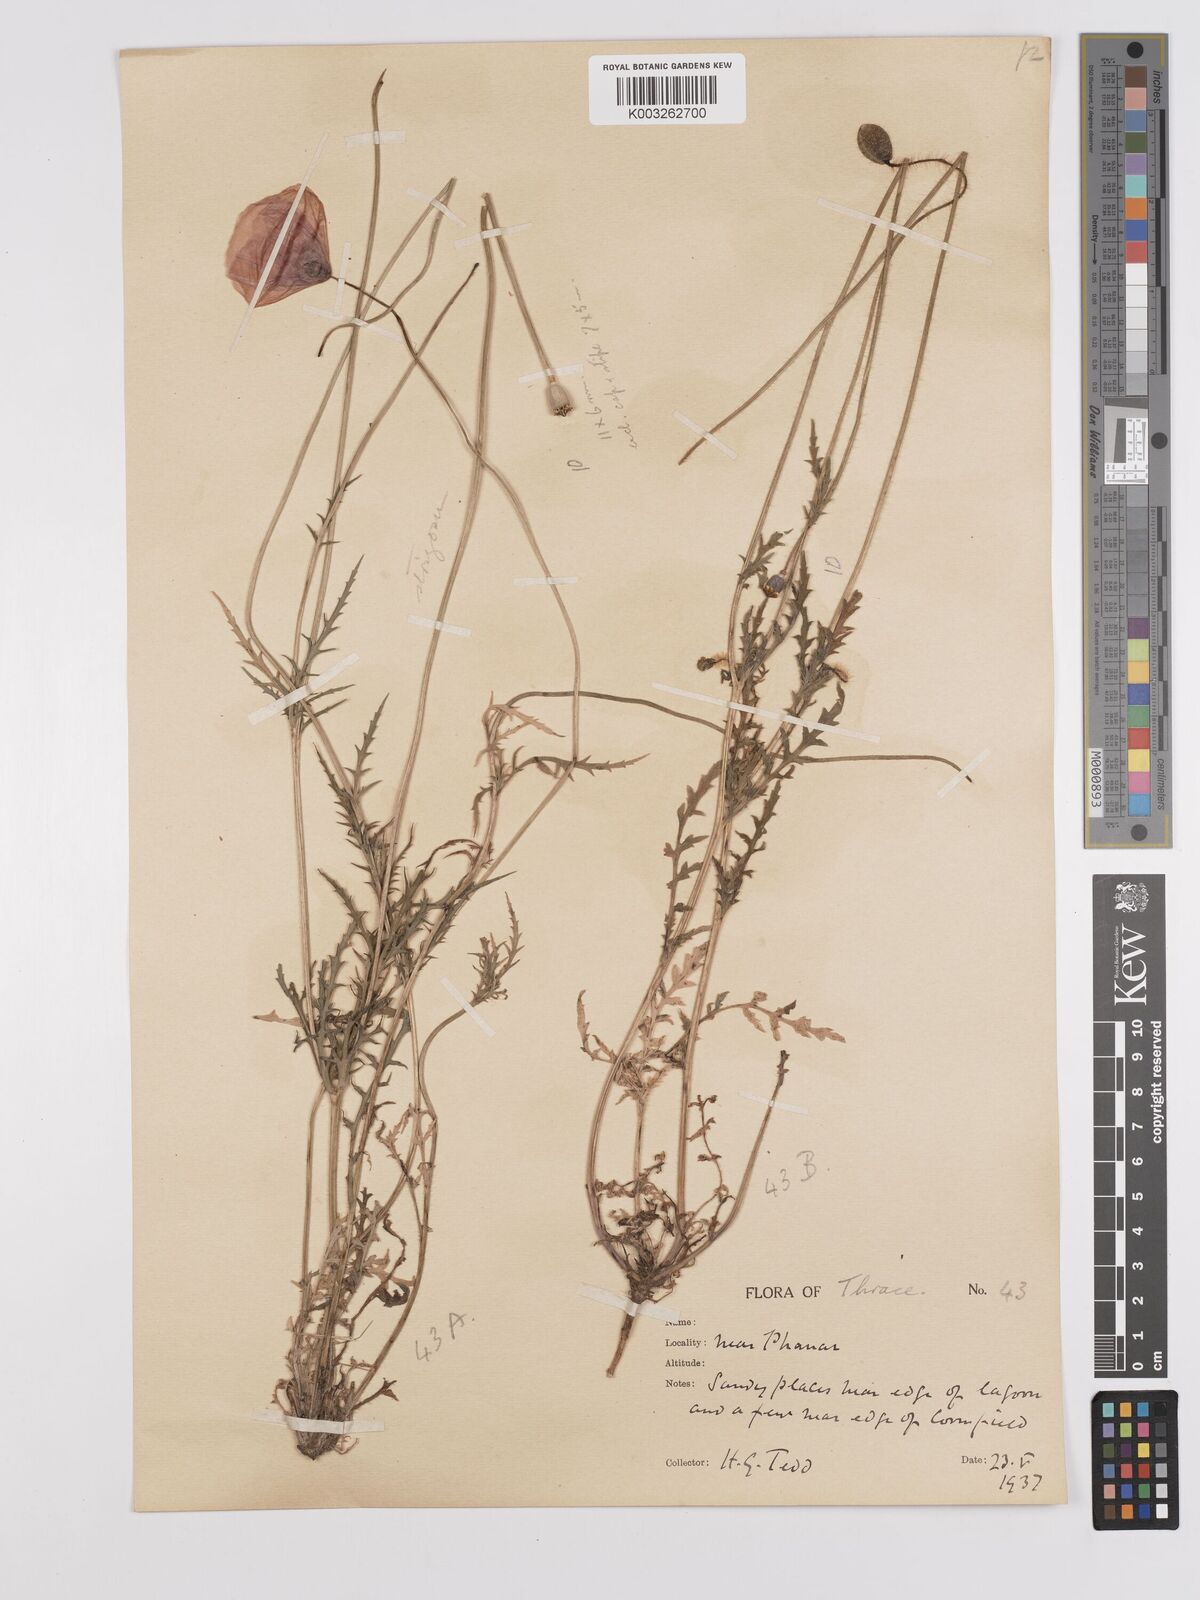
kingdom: Plantae
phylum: Tracheophyta
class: Magnoliopsida
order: Ranunculales
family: Papaveraceae
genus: Papaver
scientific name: Papaver
